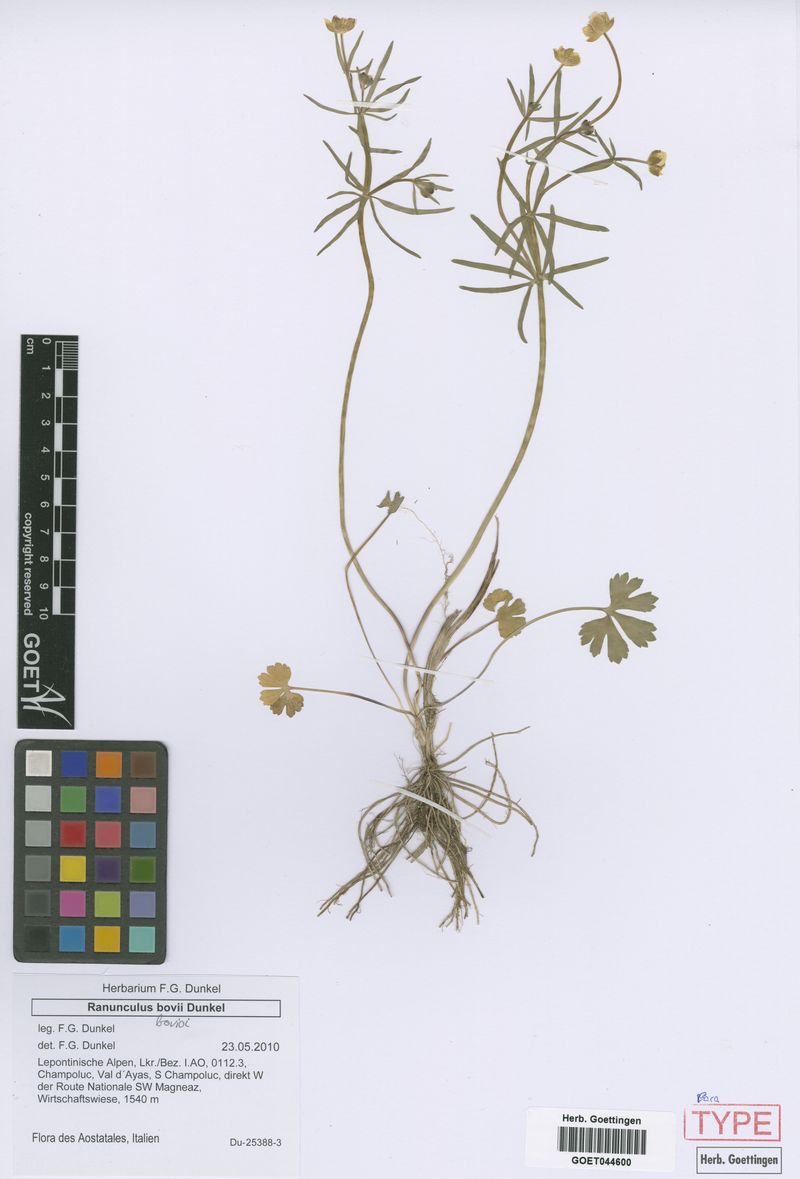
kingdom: Plantae
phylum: Tracheophyta
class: Magnoliopsida
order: Ranunculales
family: Ranunculaceae
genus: Ranunculus
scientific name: Ranunculus bovioi
